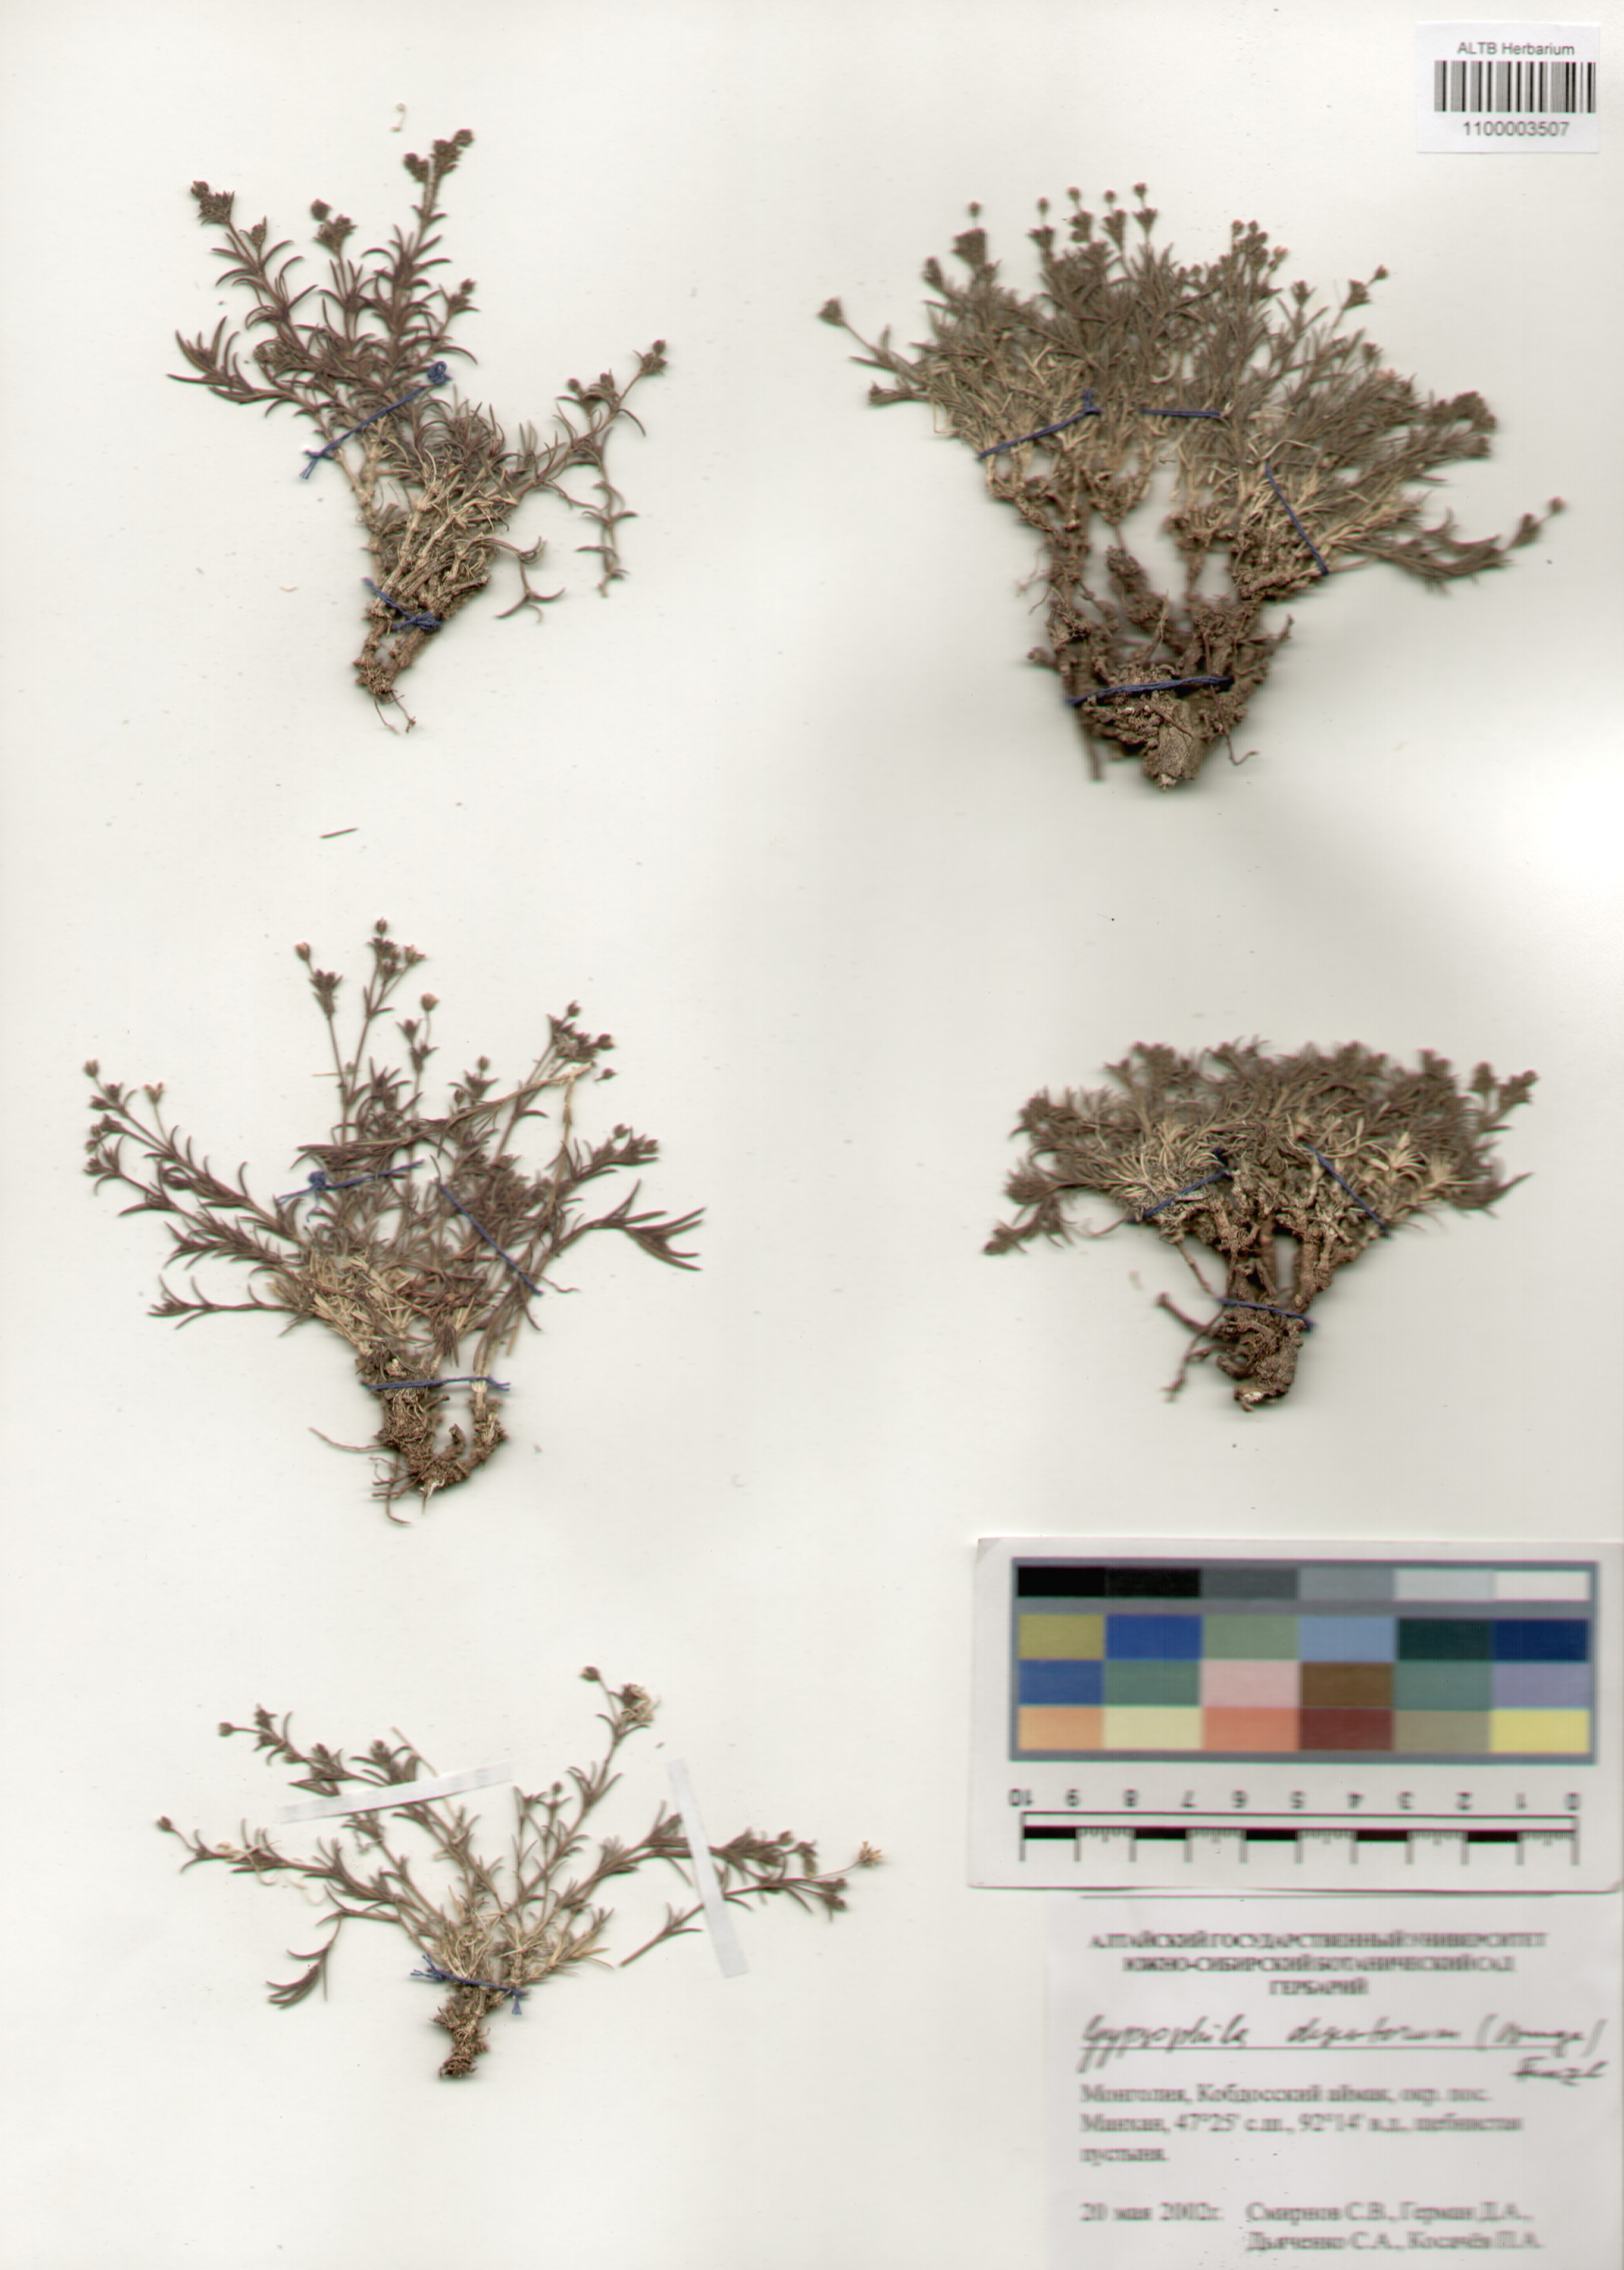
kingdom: Plantae
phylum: Tracheophyta
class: Magnoliopsida
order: Caryophyllales
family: Caryophyllaceae
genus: Heterochroa
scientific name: Heterochroa desertorum
